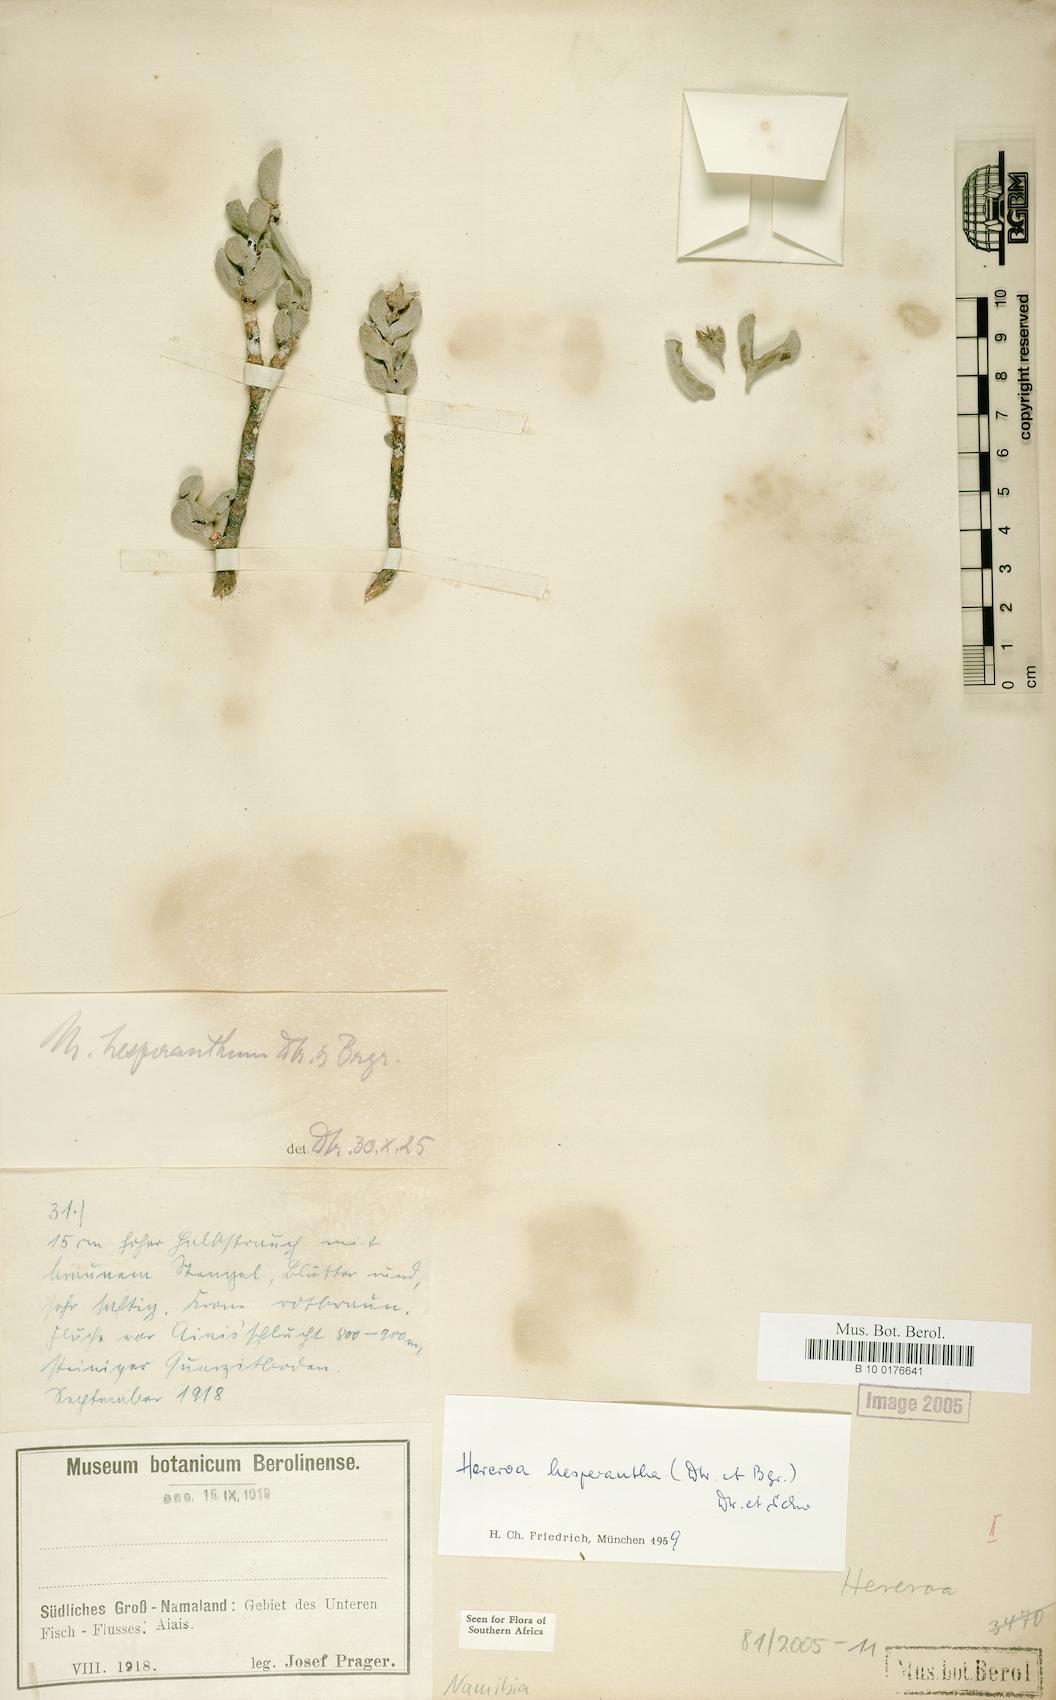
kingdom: Plantae
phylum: Tracheophyta
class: Magnoliopsida
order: Caryophyllales
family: Aizoaceae
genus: Dracophilus
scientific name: Dracophilus Hereroa hesperantha
